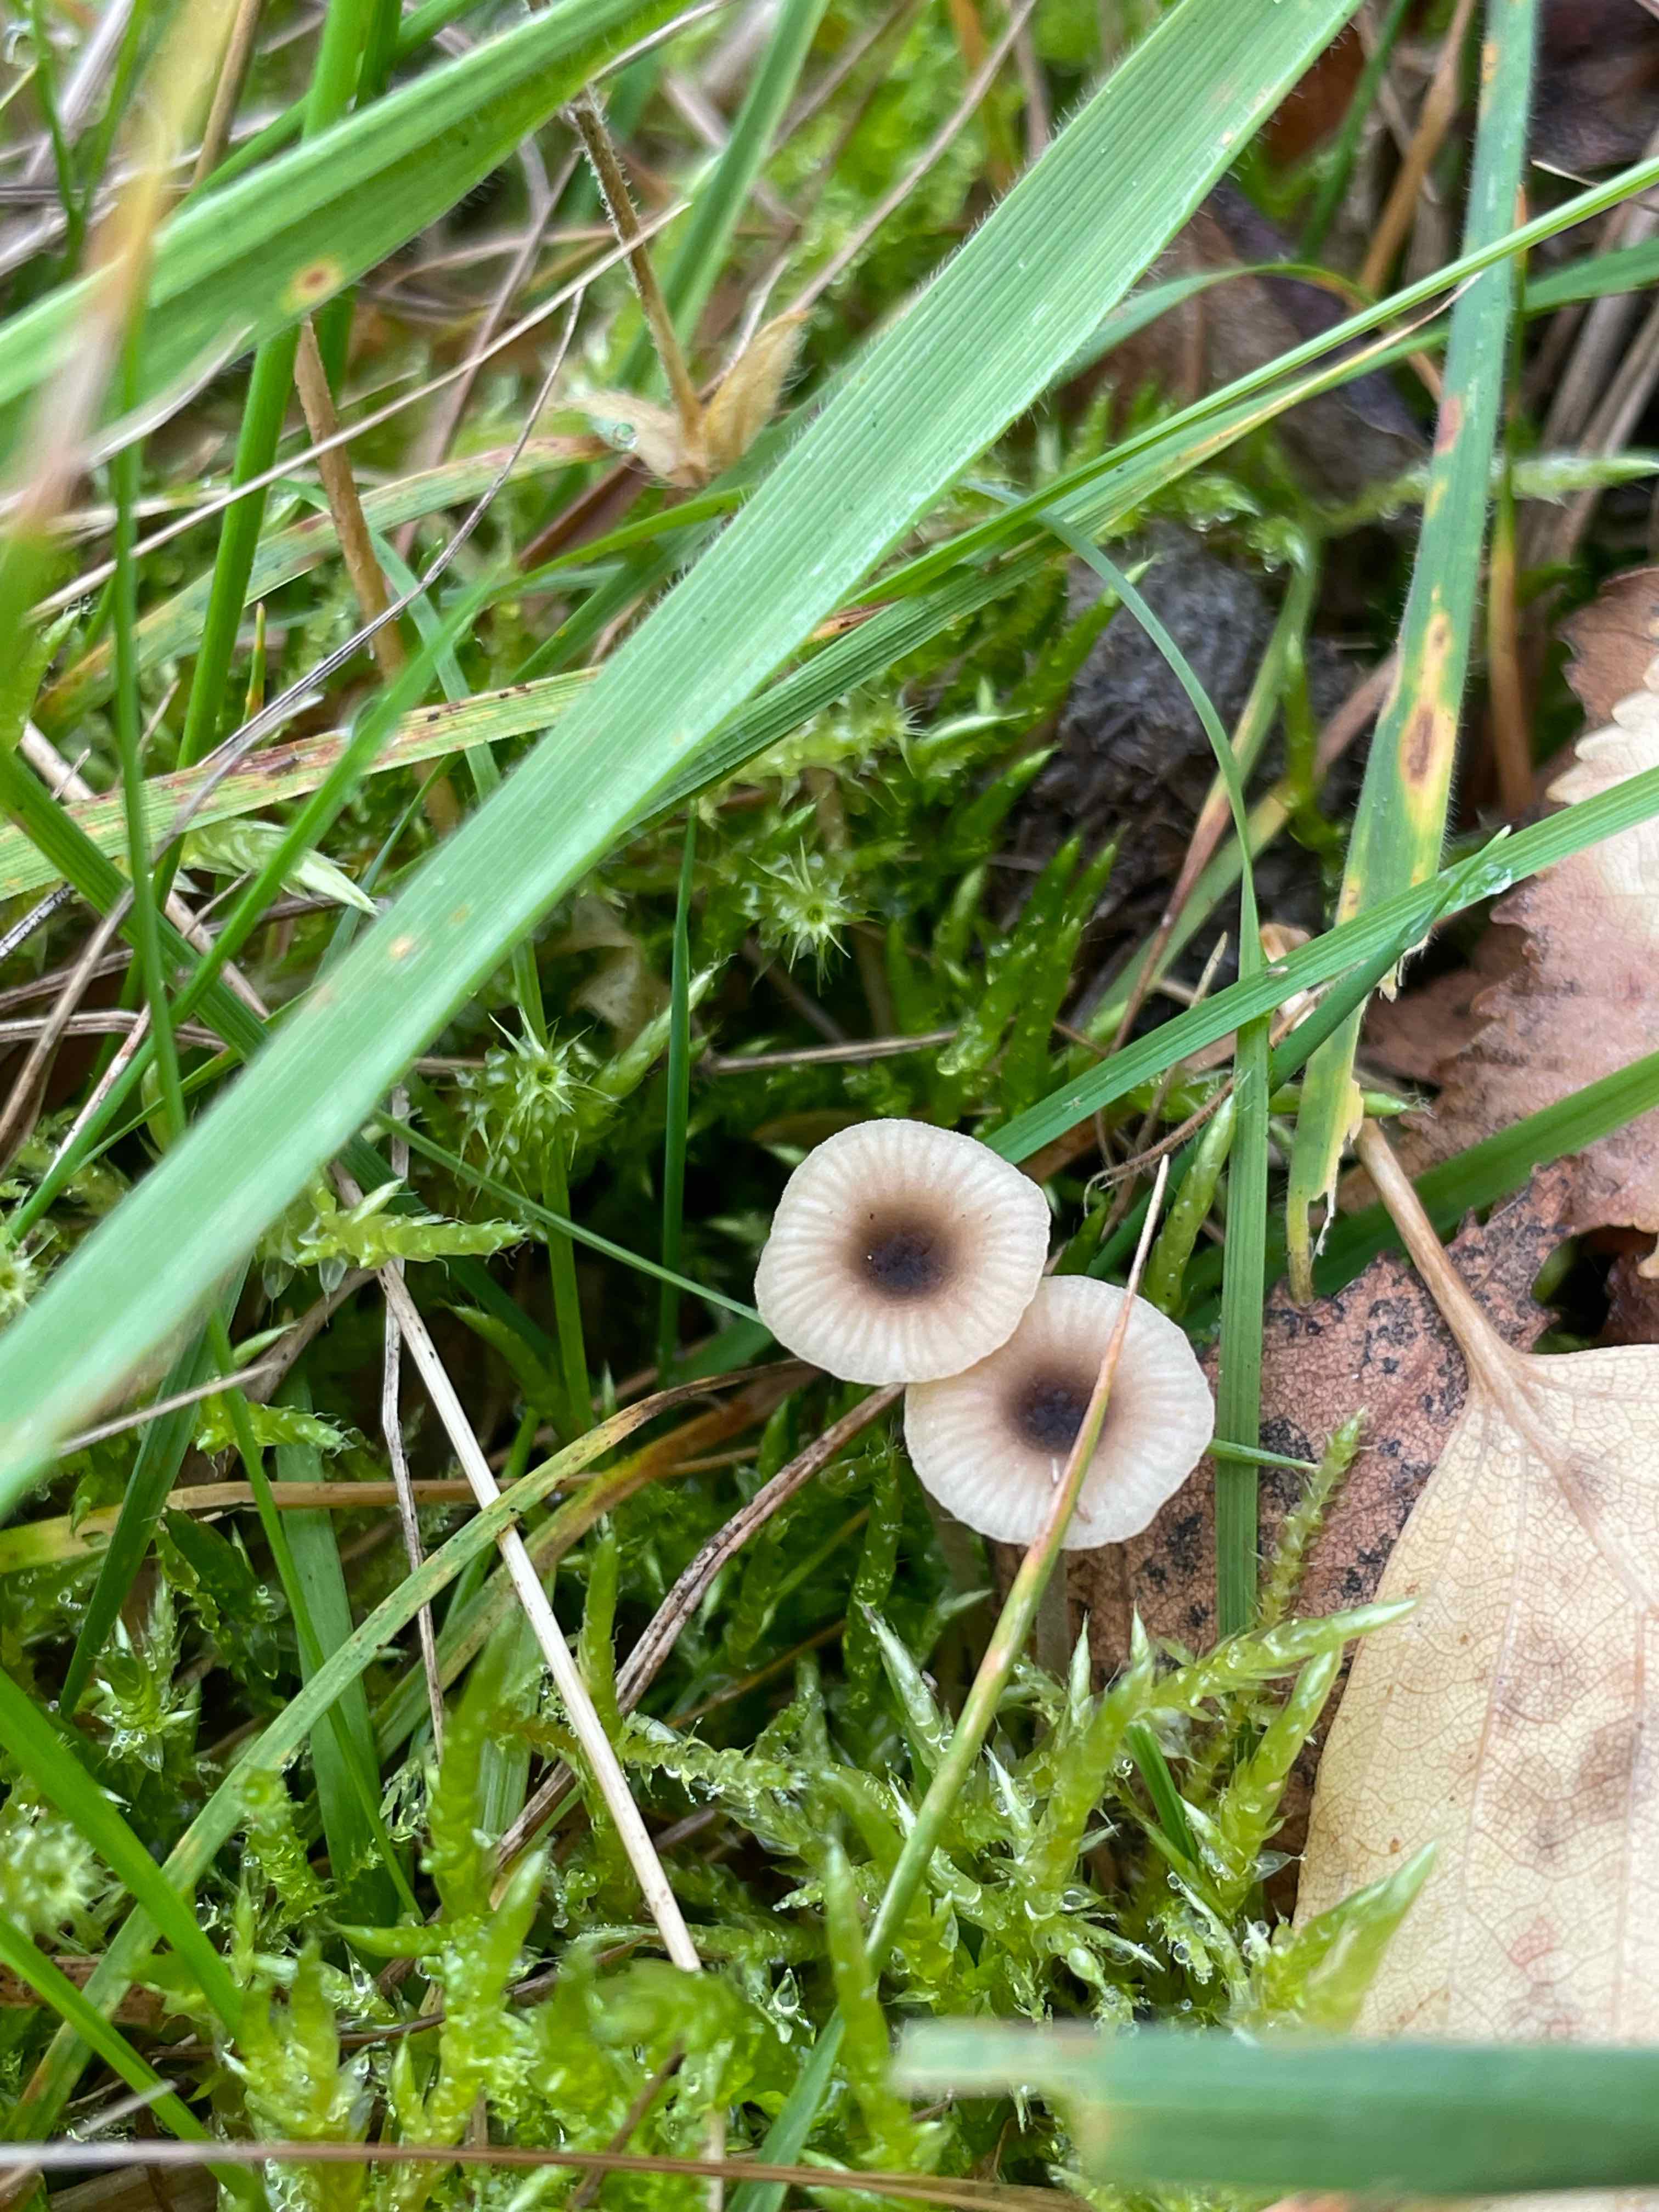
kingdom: Fungi
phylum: Basidiomycota
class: Agaricomycetes
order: Hymenochaetales
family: Rickenellaceae
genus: Rickenella
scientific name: Rickenella swartzii
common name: finstokket mosnavlehat
